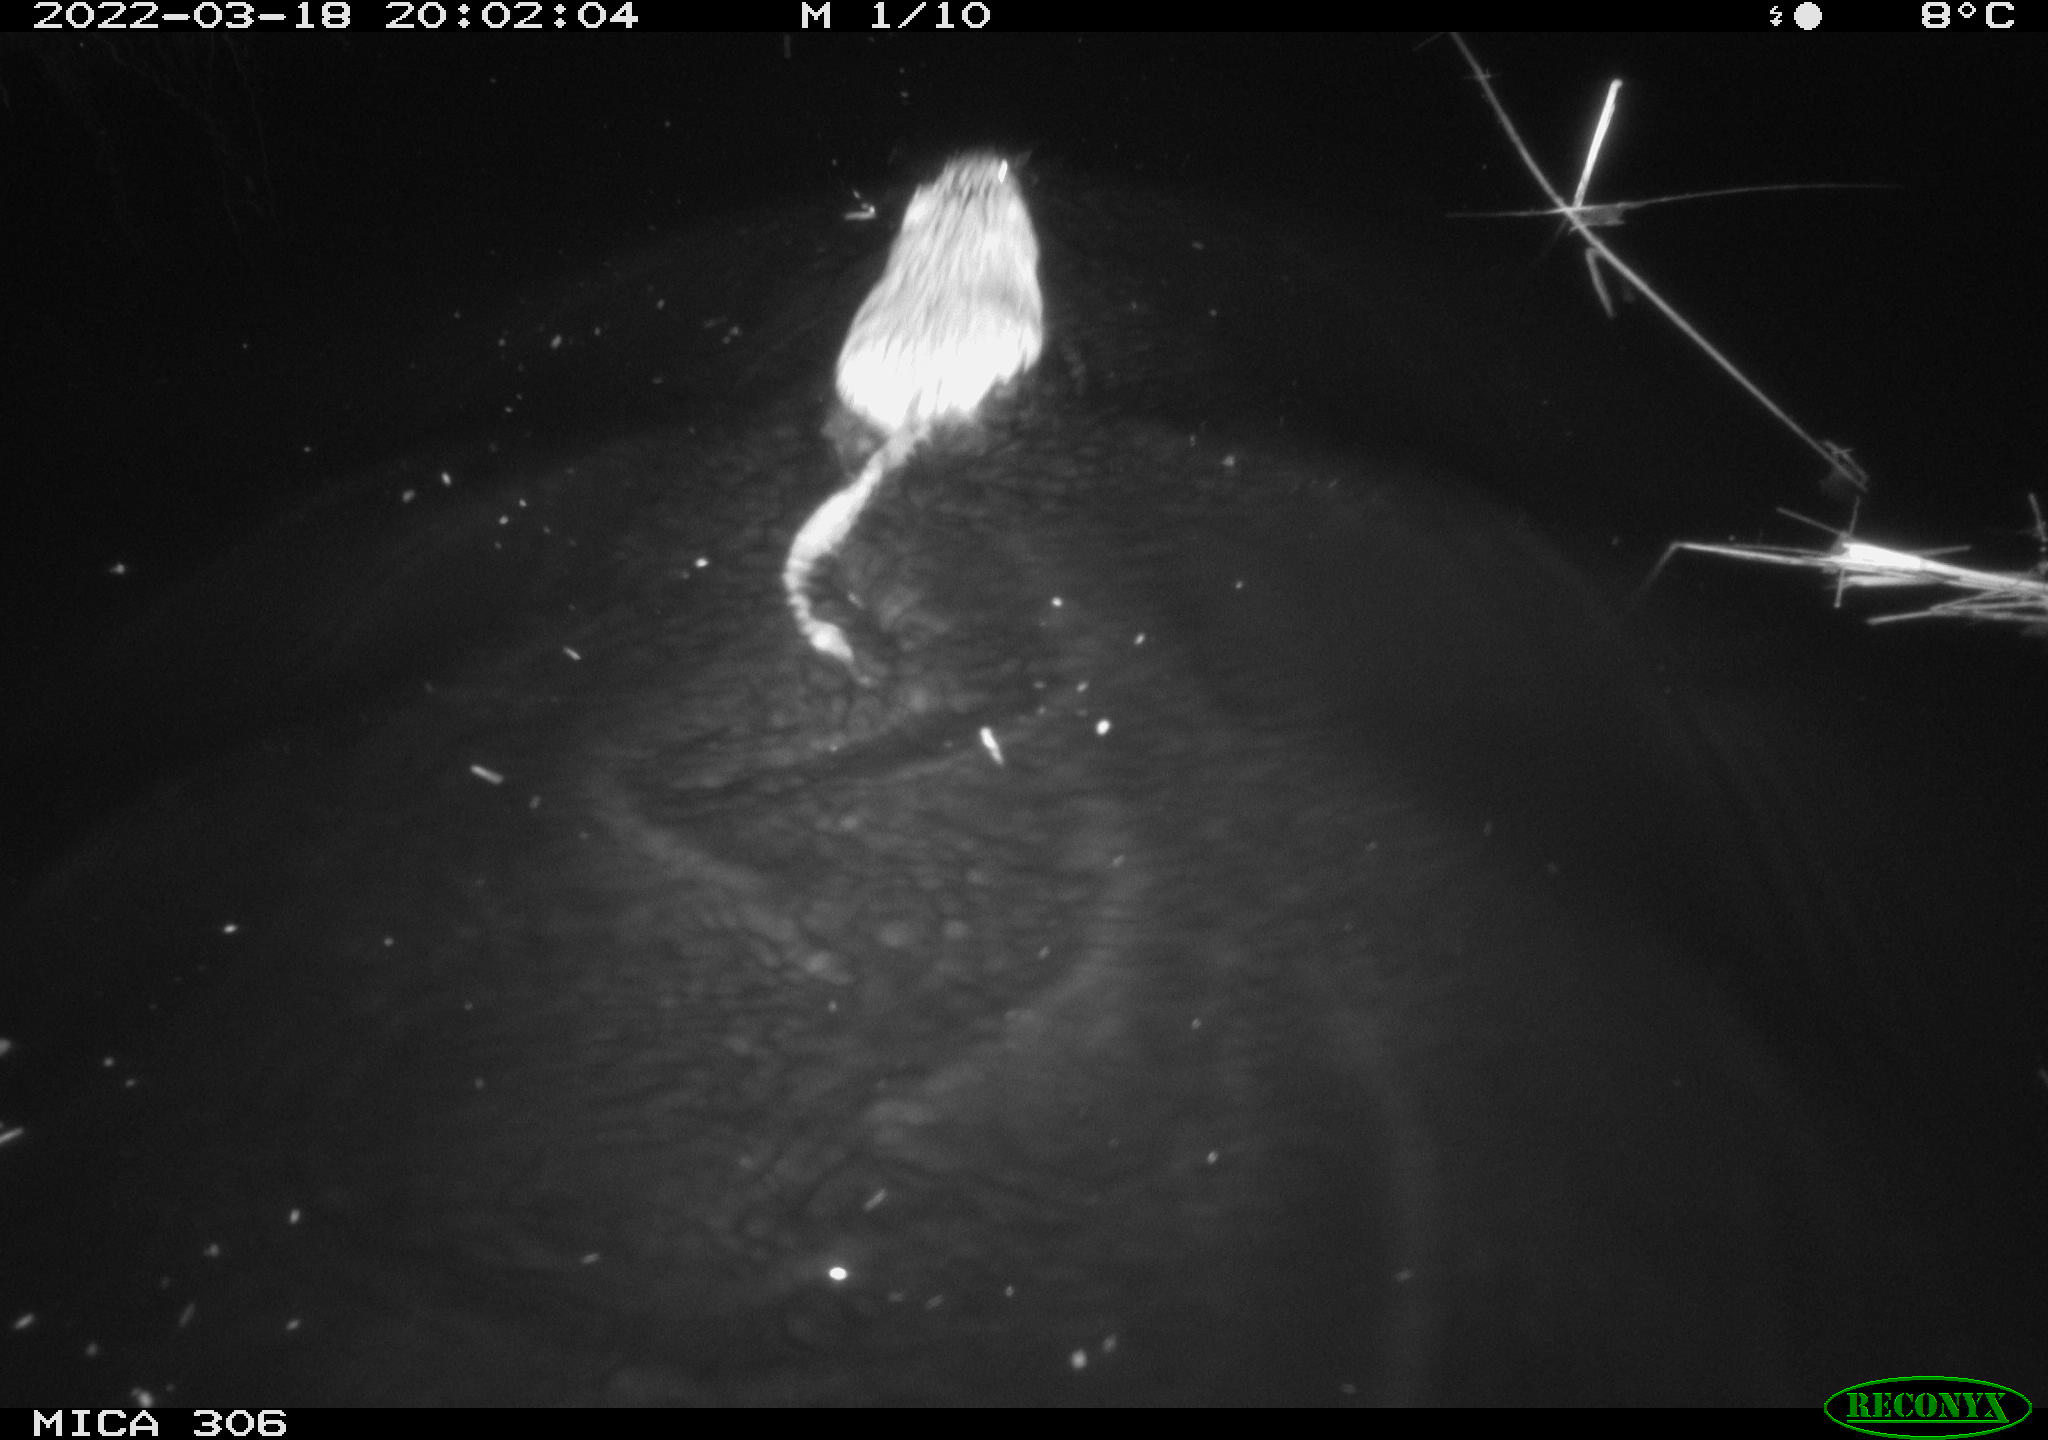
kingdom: Animalia
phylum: Chordata
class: Mammalia
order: Rodentia
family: Cricetidae
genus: Ondatra
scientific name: Ondatra zibethicus
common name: Muskrat
